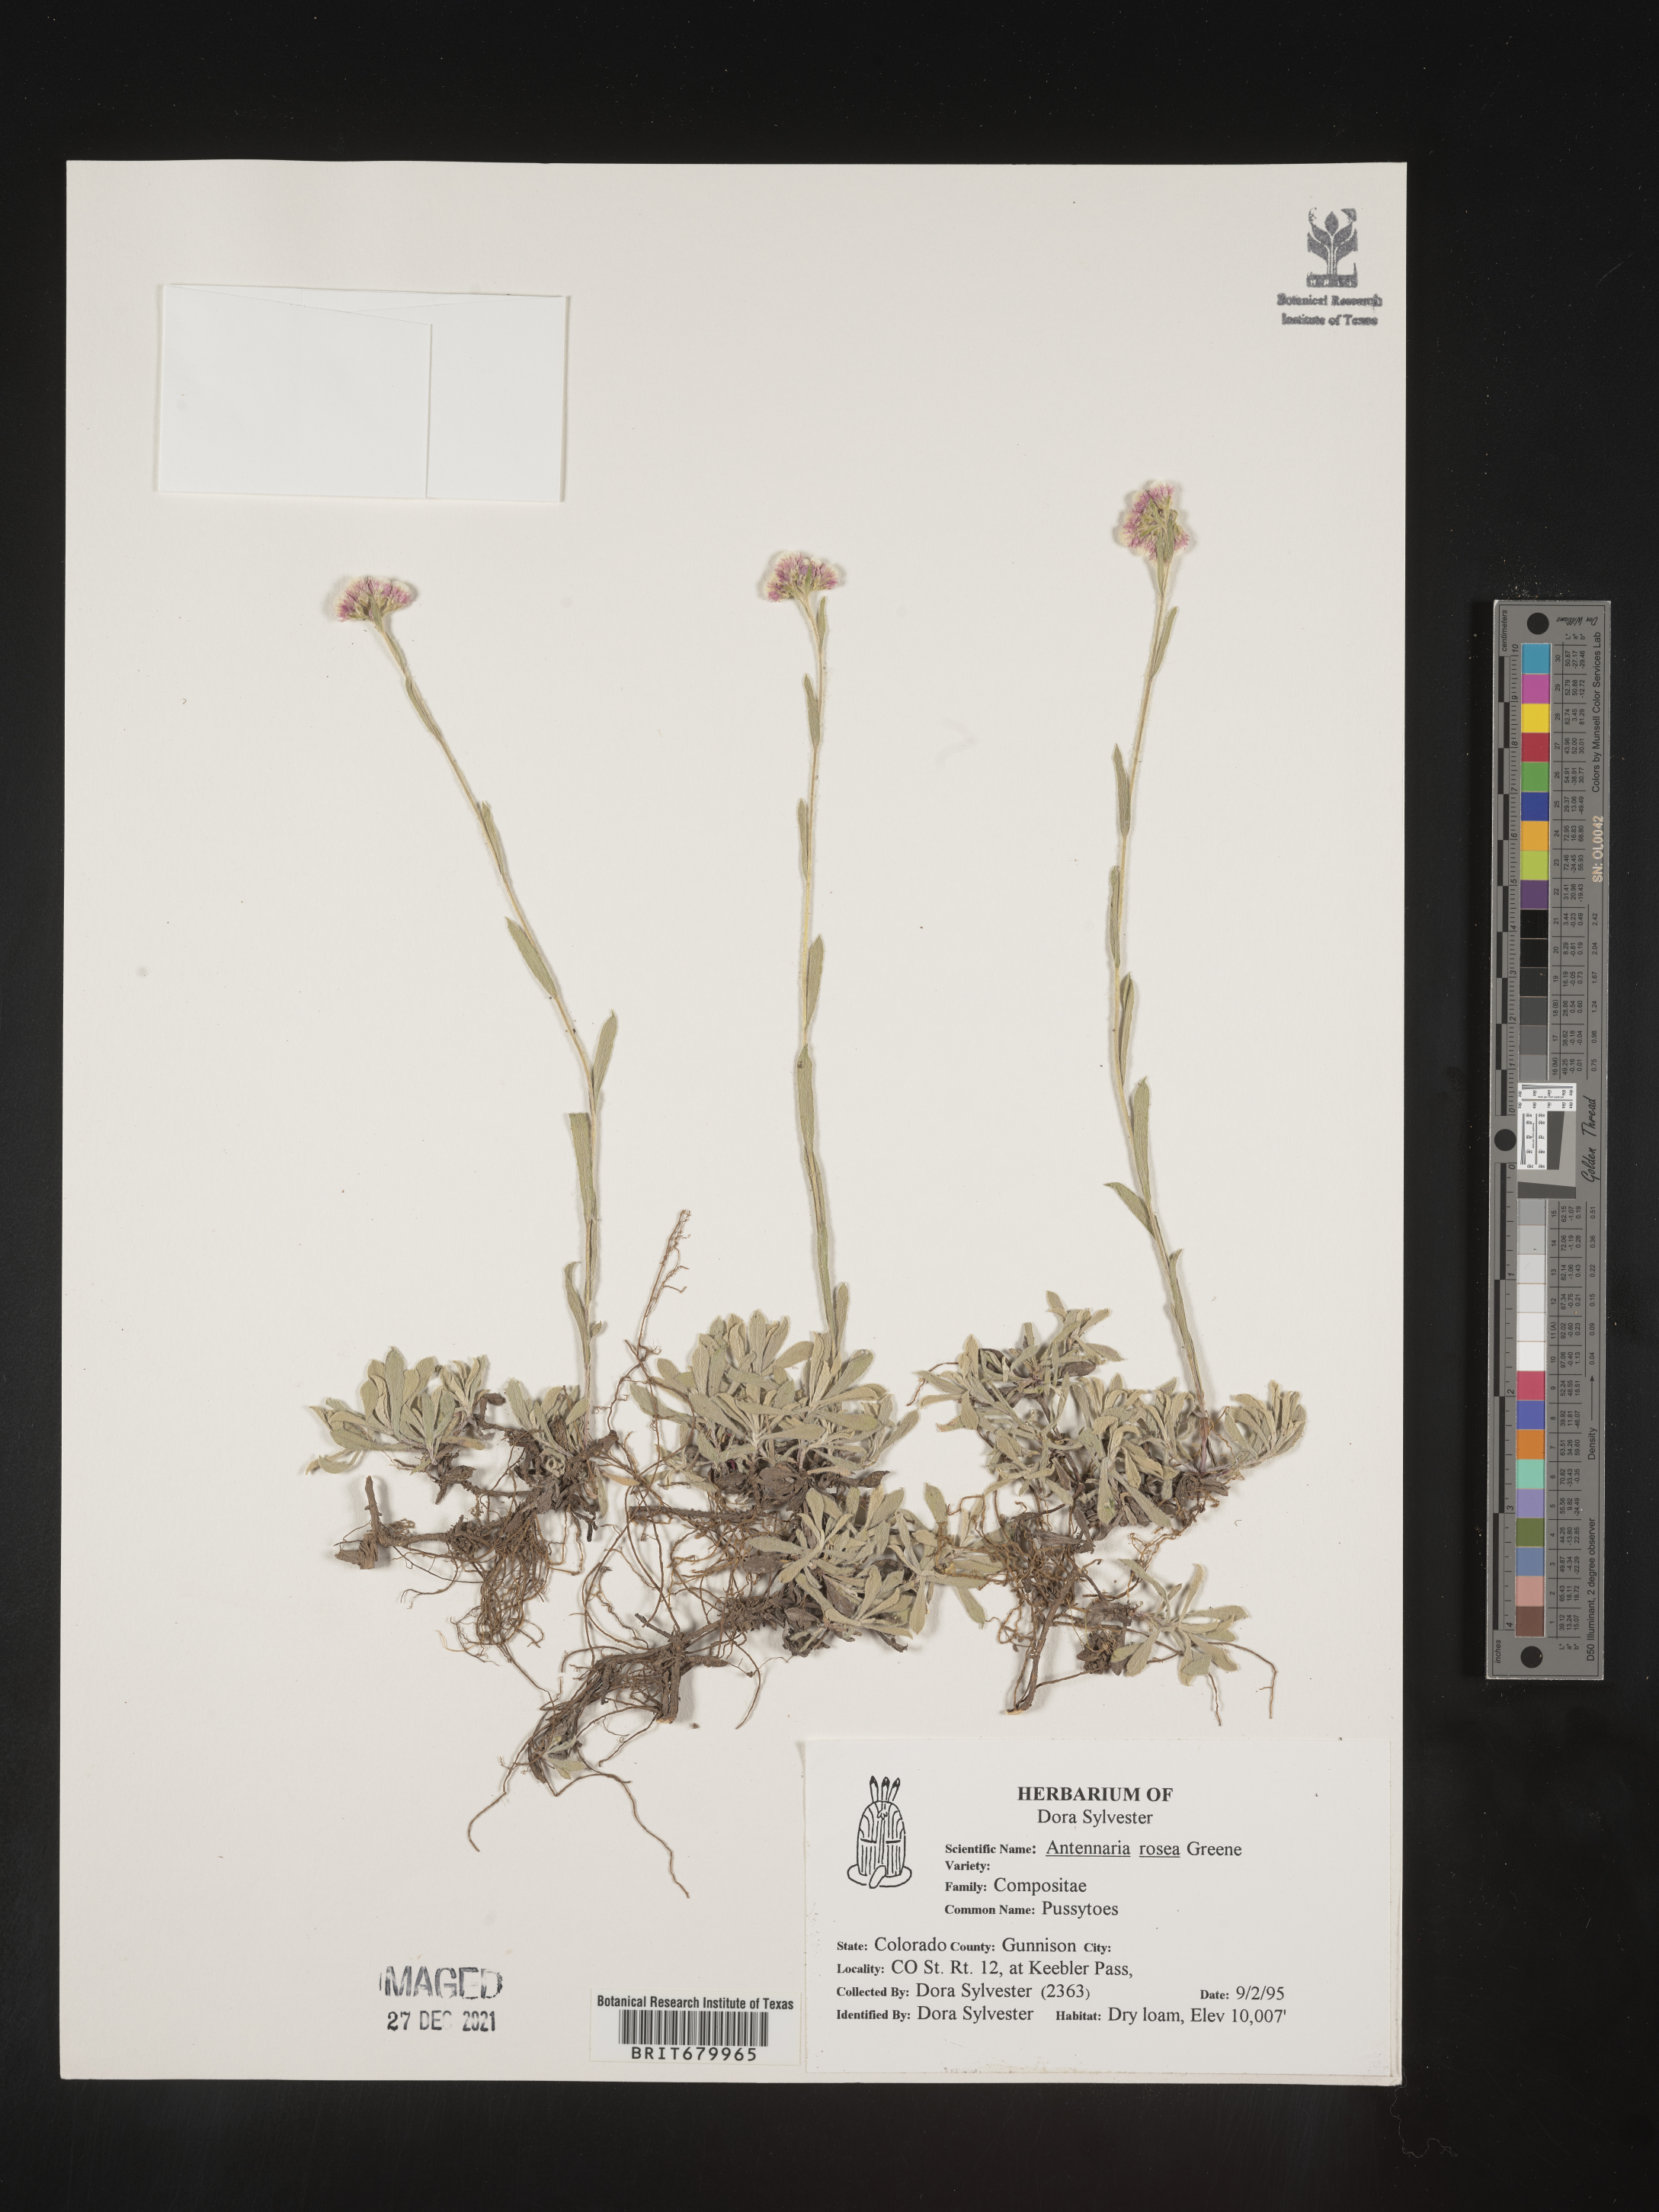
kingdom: Plantae
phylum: Tracheophyta
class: Magnoliopsida
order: Asterales
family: Asteraceae
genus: Antennaria
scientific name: Antennaria rosea
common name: Rosy pussytoes
